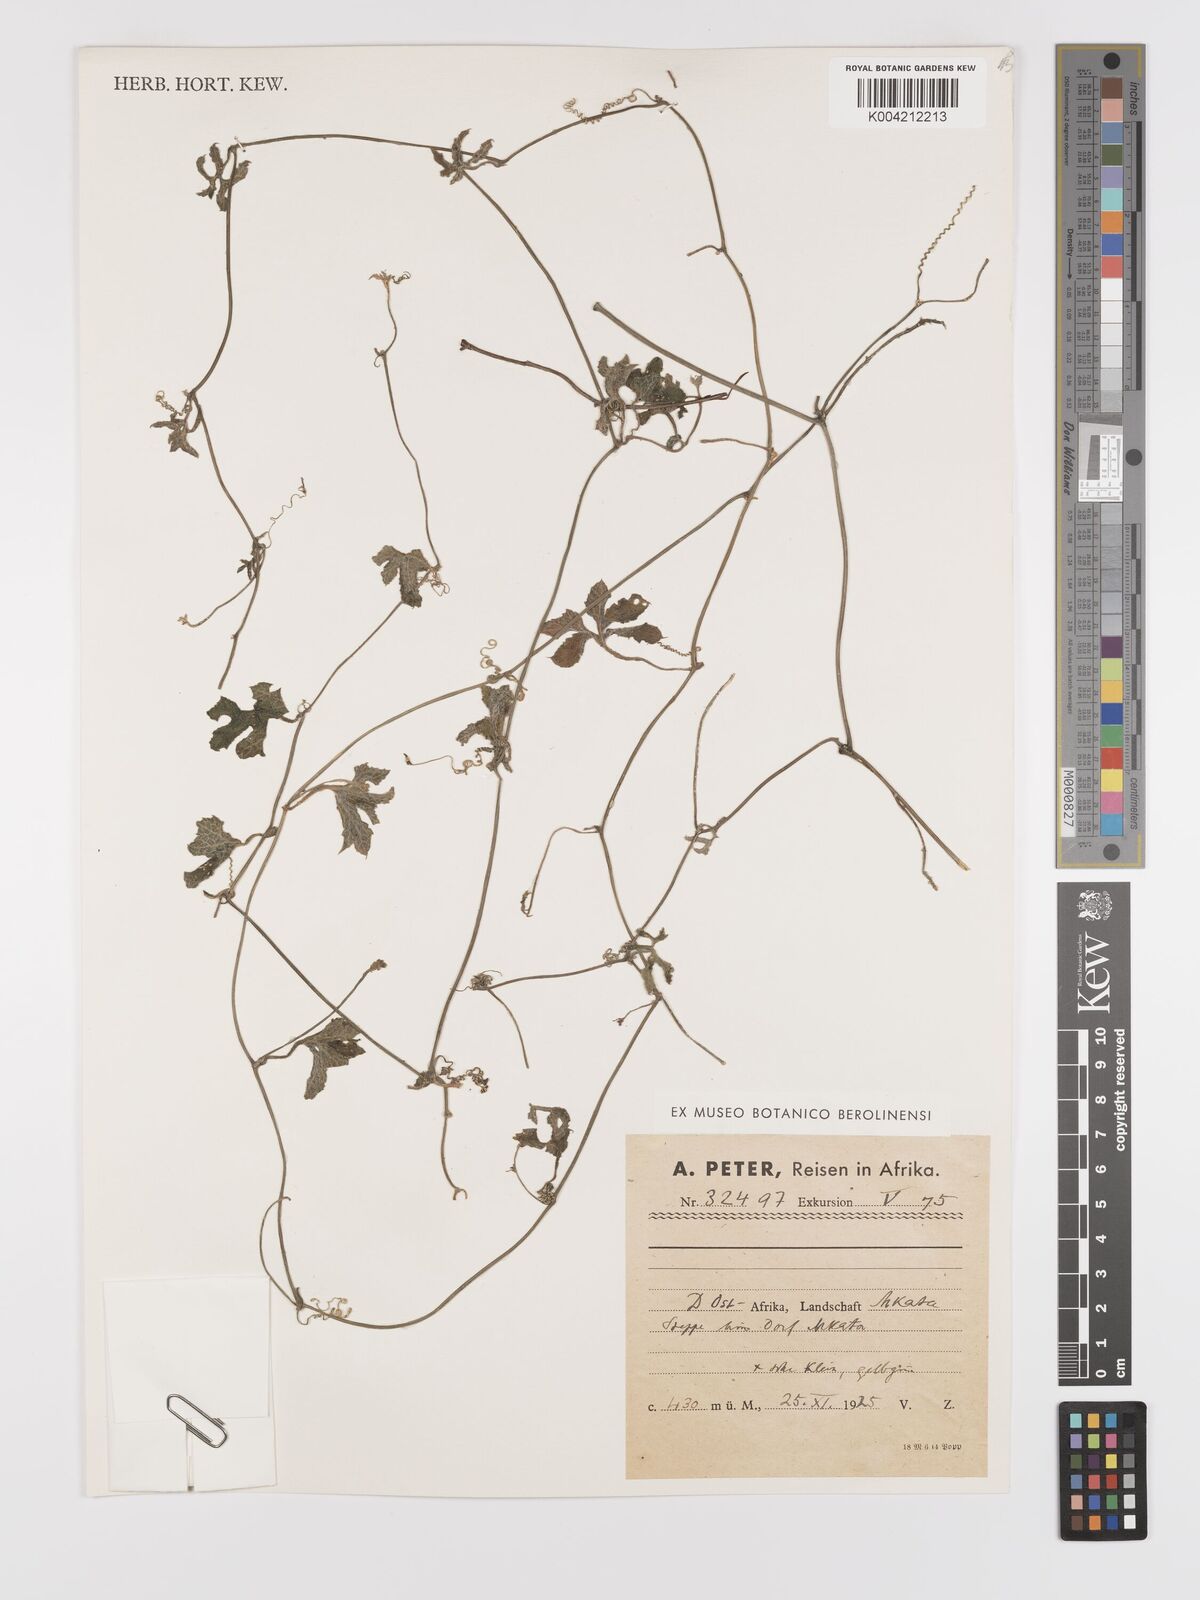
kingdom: Plantae
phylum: Tracheophyta
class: Magnoliopsida
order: Cucurbitales
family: Cucurbitaceae
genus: Kedrostis
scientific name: Kedrostis abdallae
